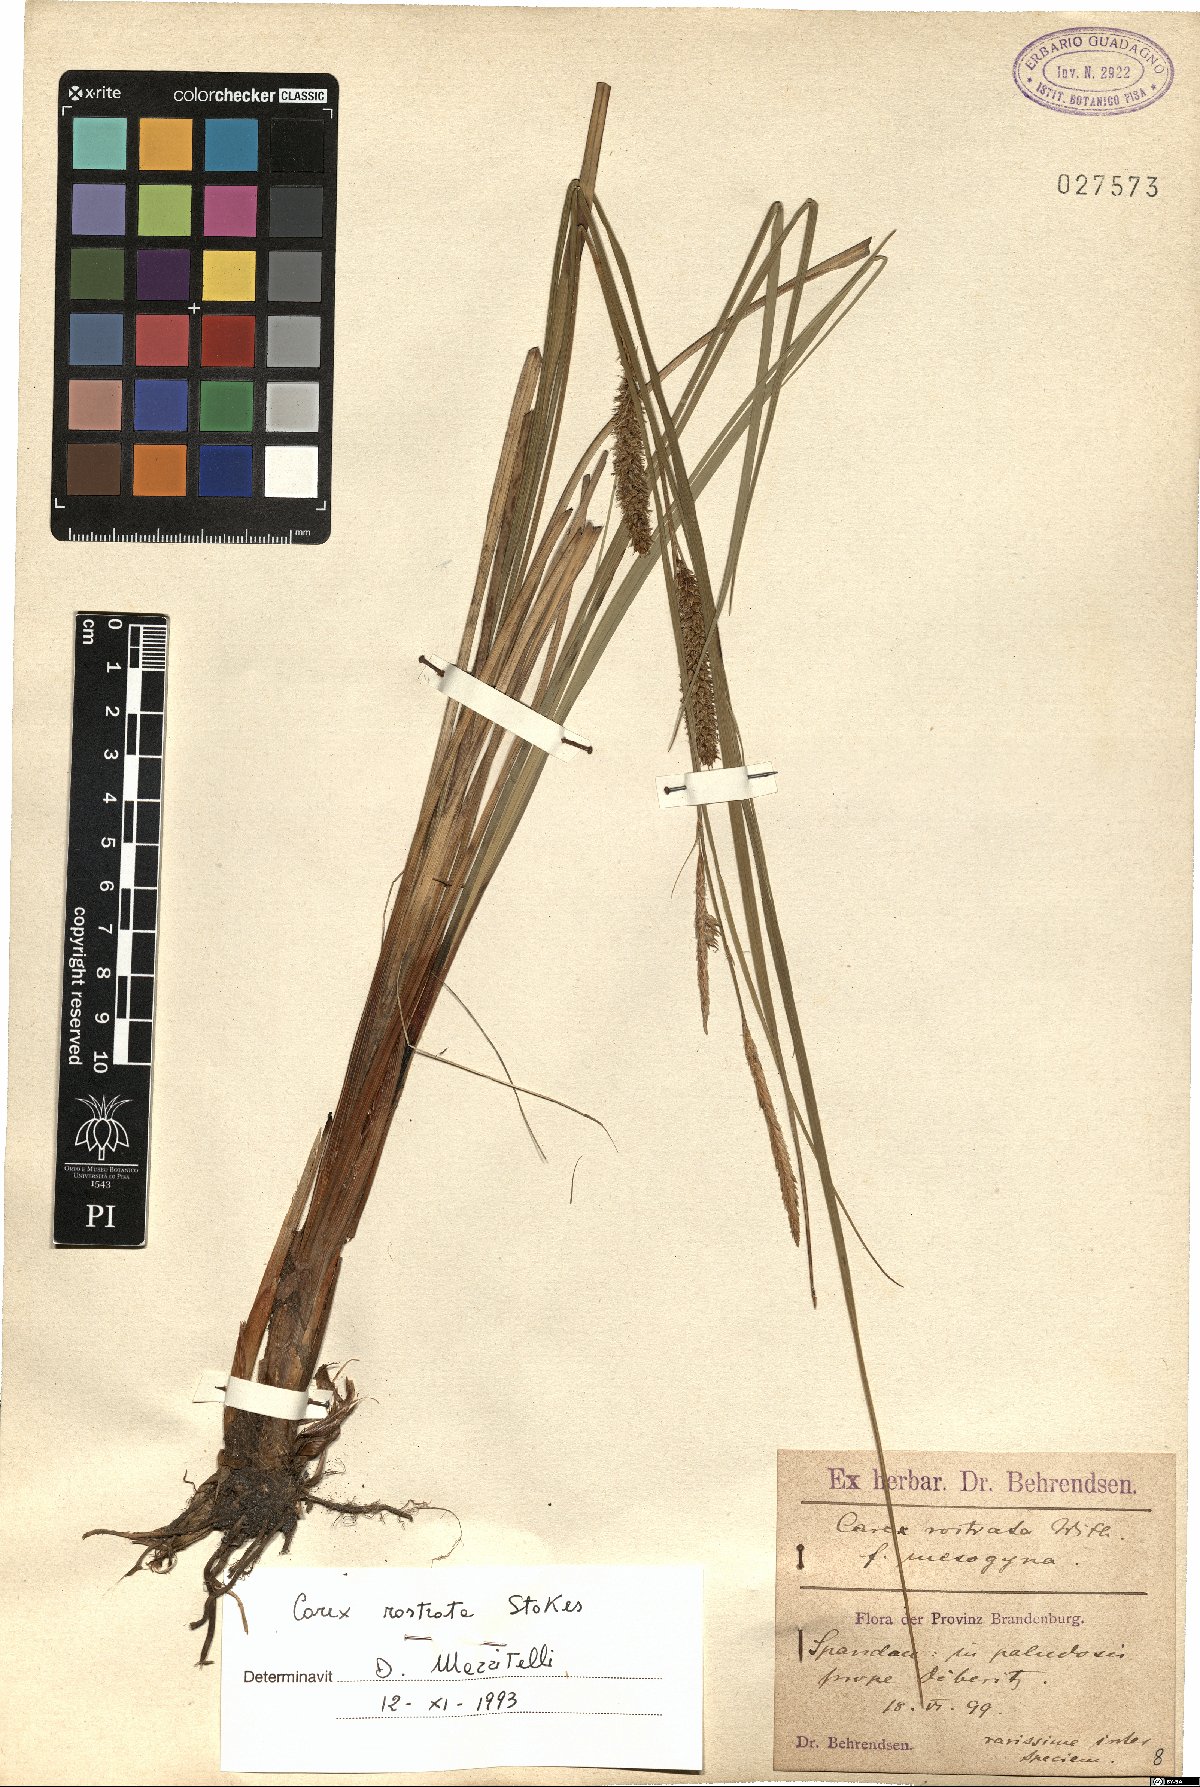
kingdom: Plantae
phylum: Tracheophyta
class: Liliopsida
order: Poales
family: Cyperaceae
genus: Carex
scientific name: Carex rostrata
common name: Bottle sedge
